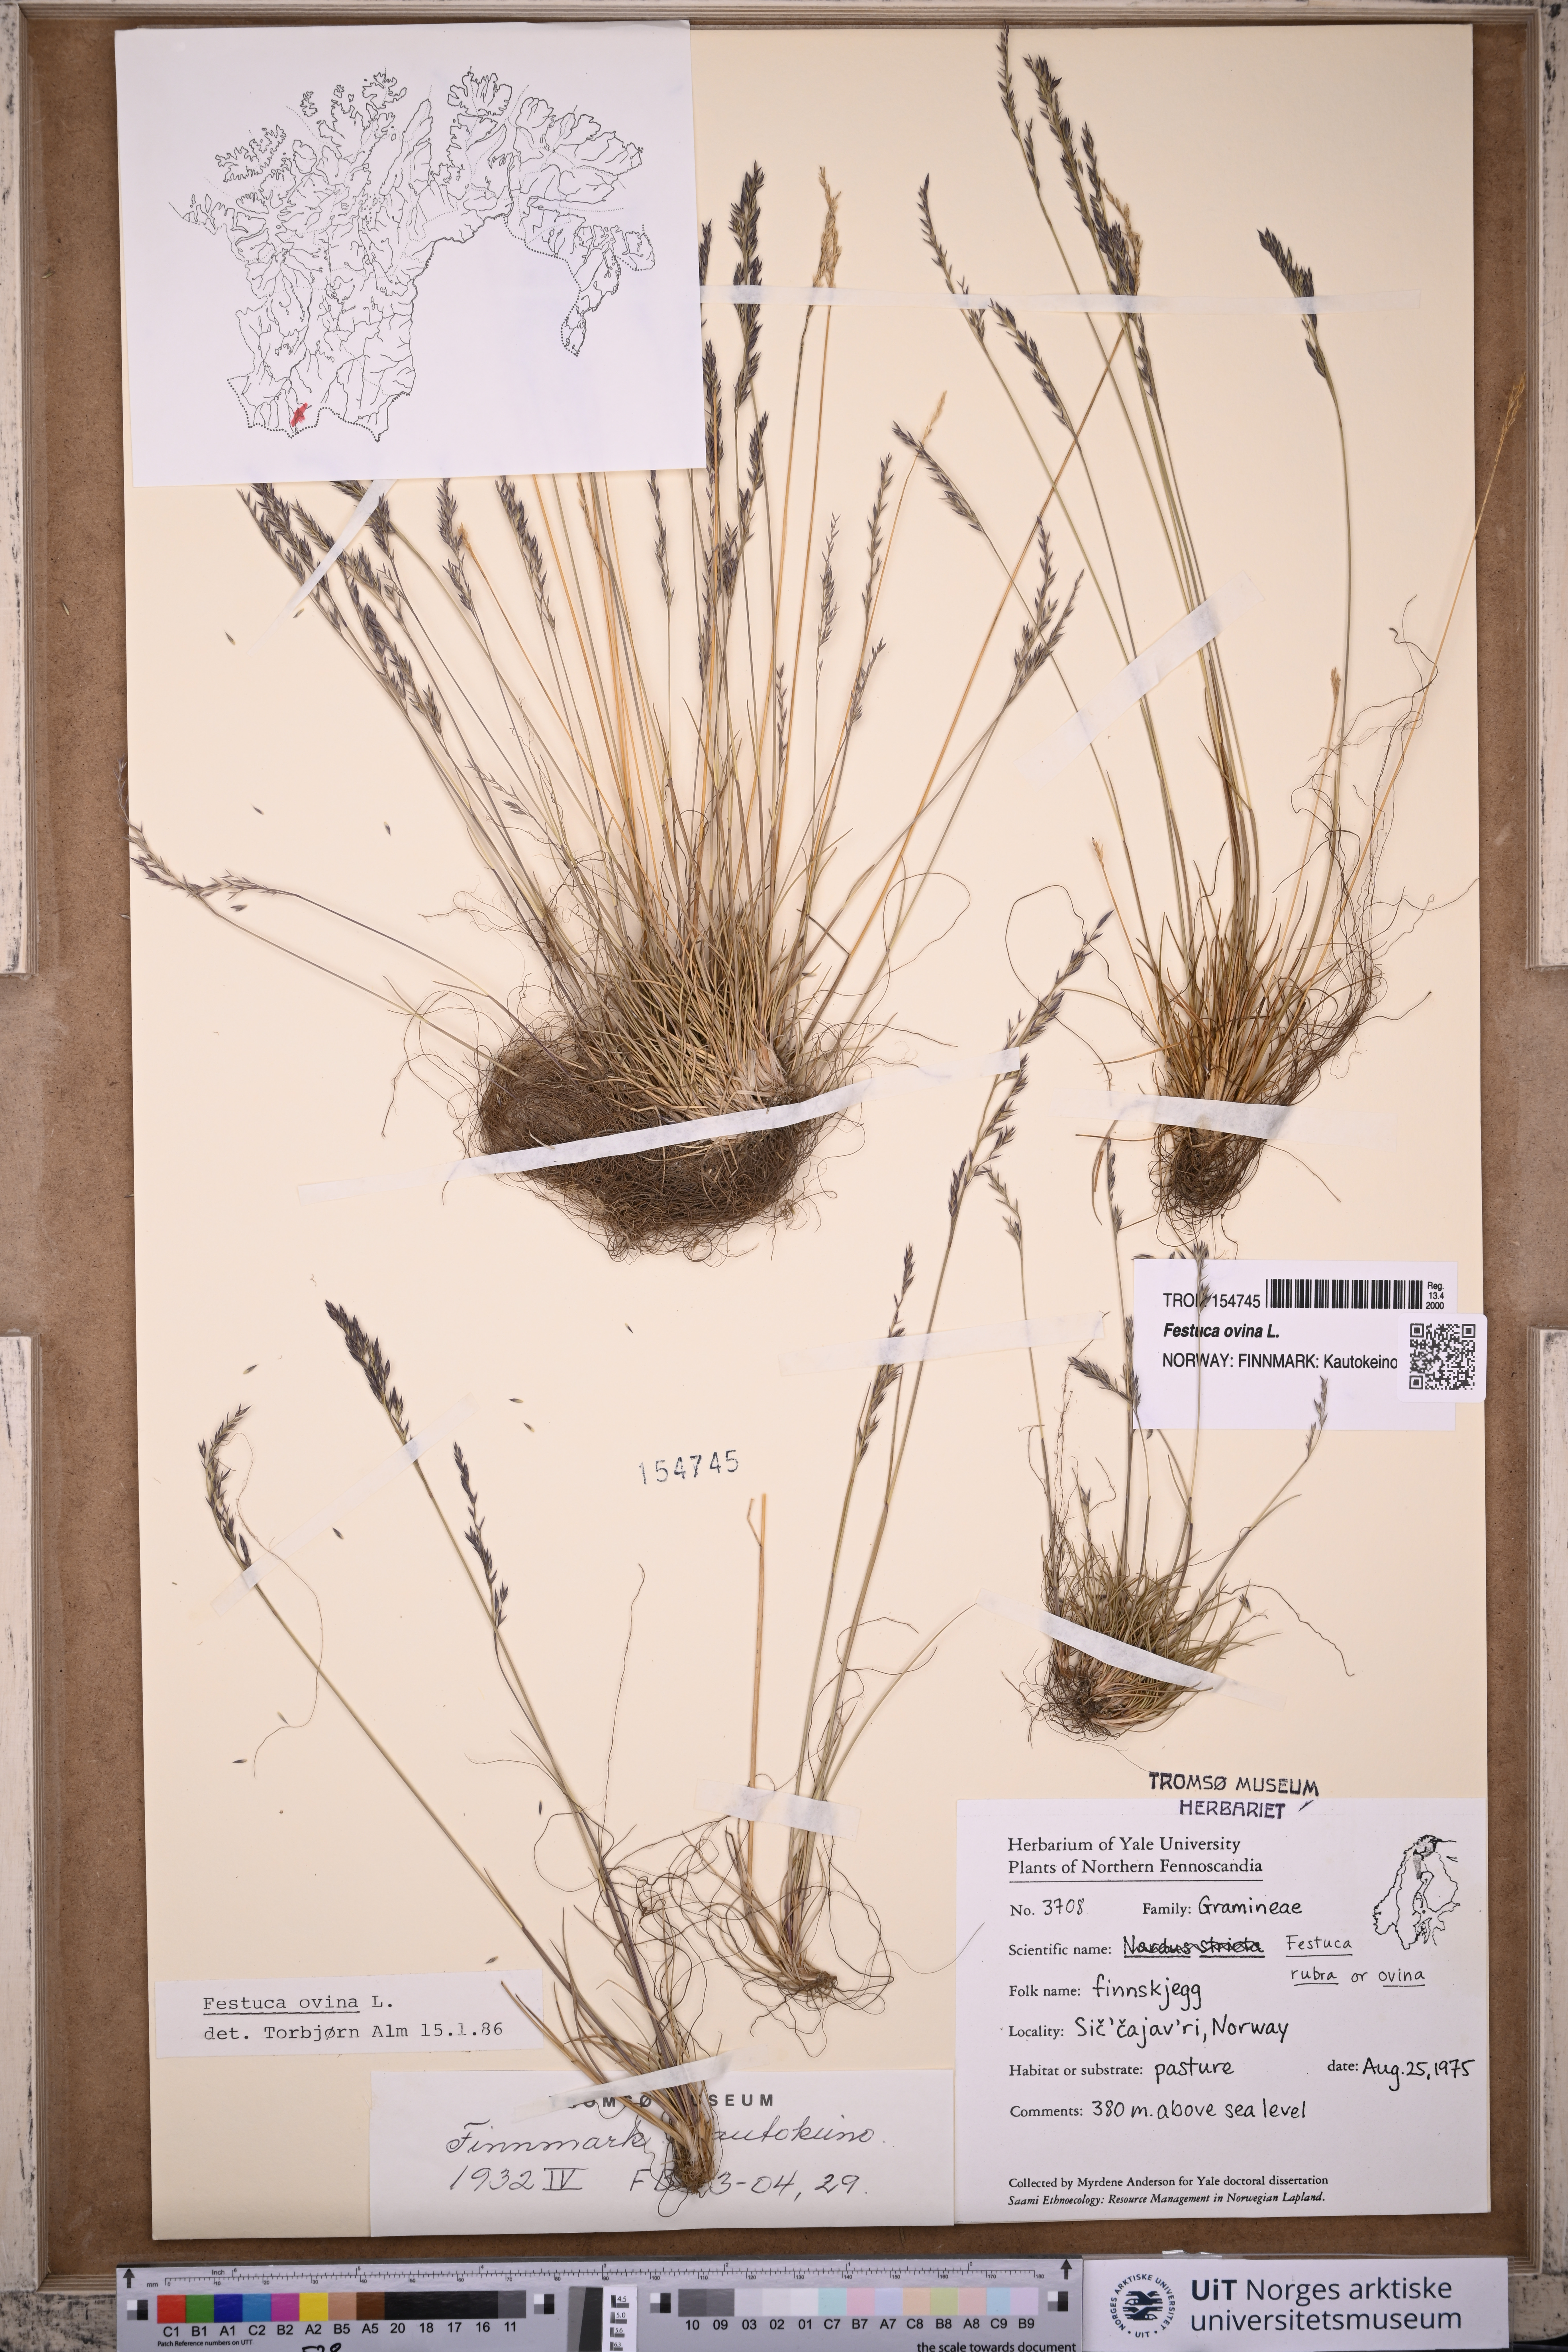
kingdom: Plantae
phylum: Tracheophyta
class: Liliopsida
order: Poales
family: Poaceae
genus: Festuca
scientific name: Festuca ovina
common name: Sheep fescue
